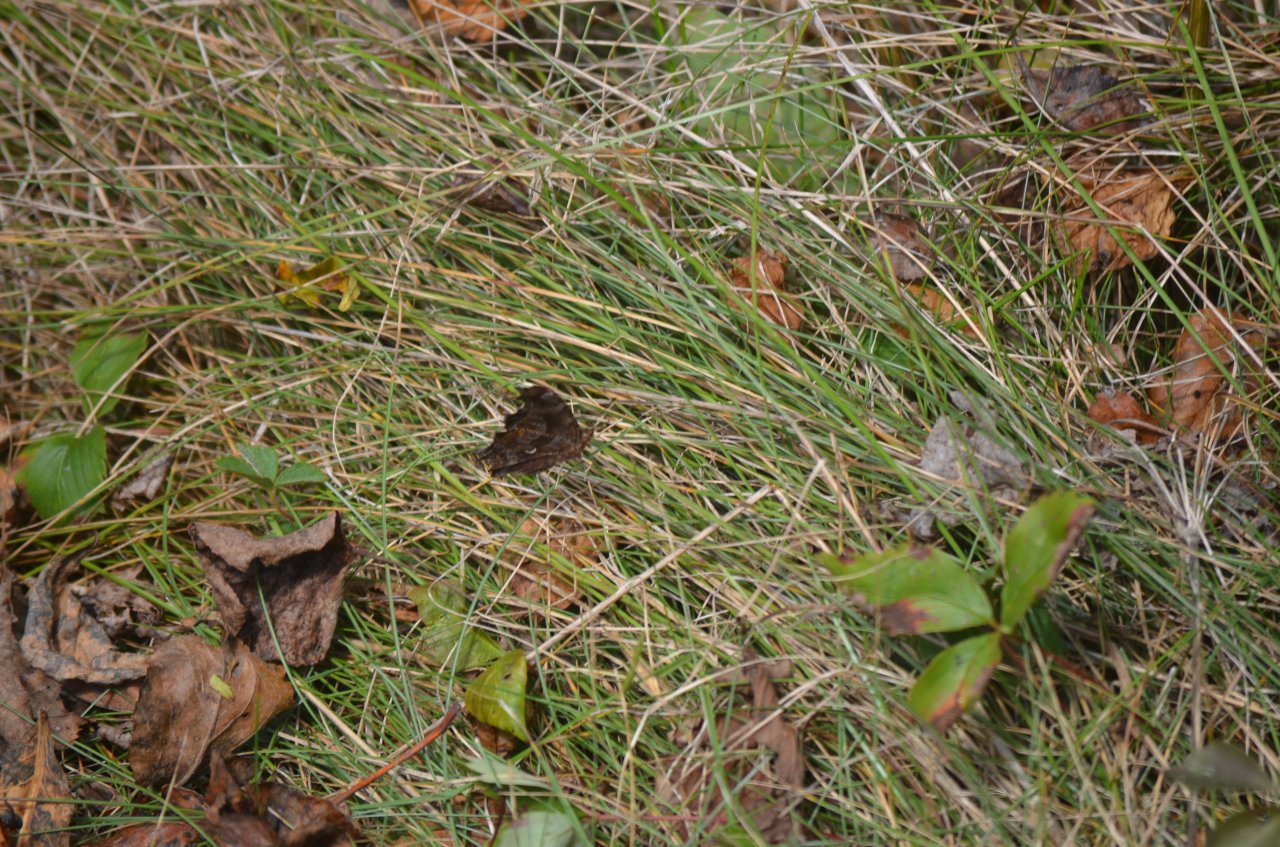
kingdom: Animalia
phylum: Arthropoda
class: Insecta
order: Lepidoptera
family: Nymphalidae
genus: Polygonia
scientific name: Polygonia
